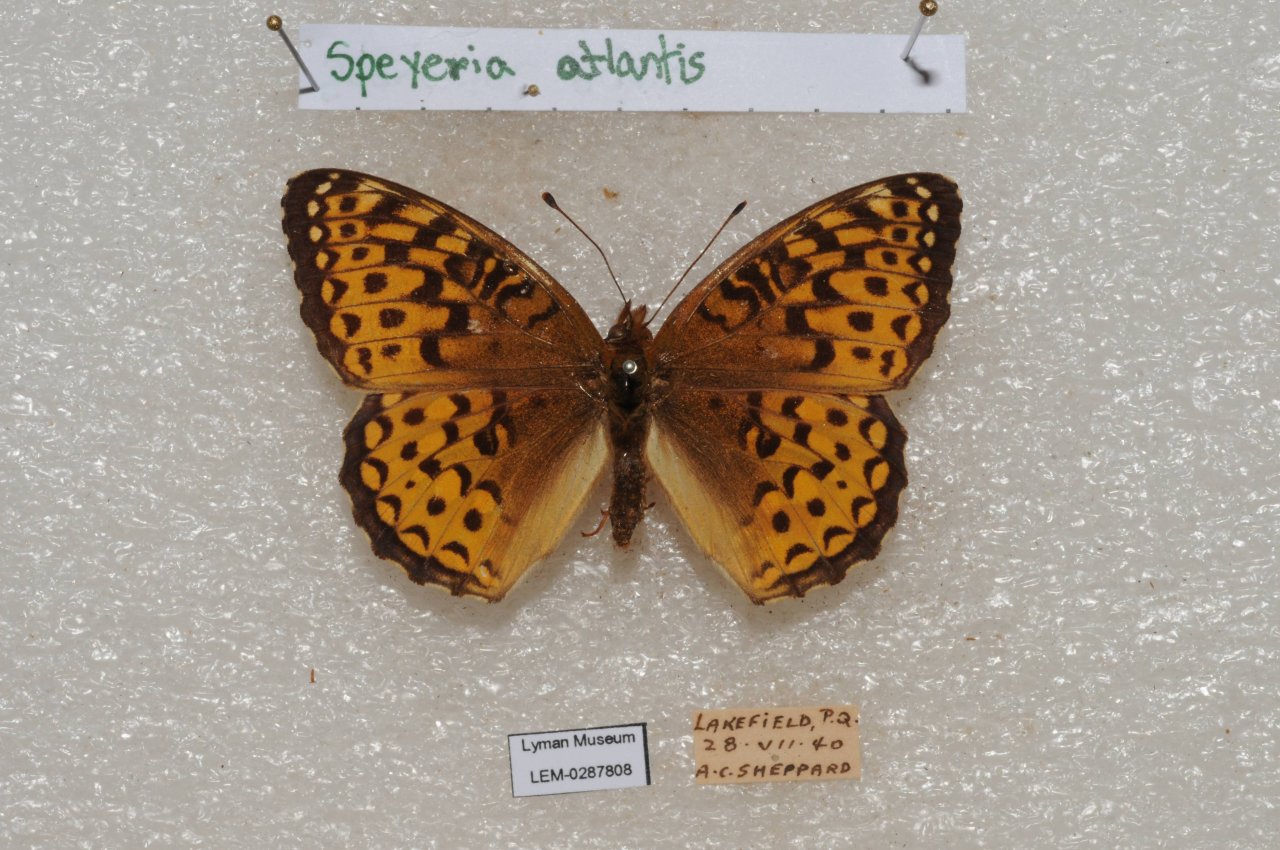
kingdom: Animalia
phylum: Arthropoda
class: Insecta
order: Lepidoptera
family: Nymphalidae
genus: Speyeria
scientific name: Speyeria atlantis
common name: Atlantis Fritillary
